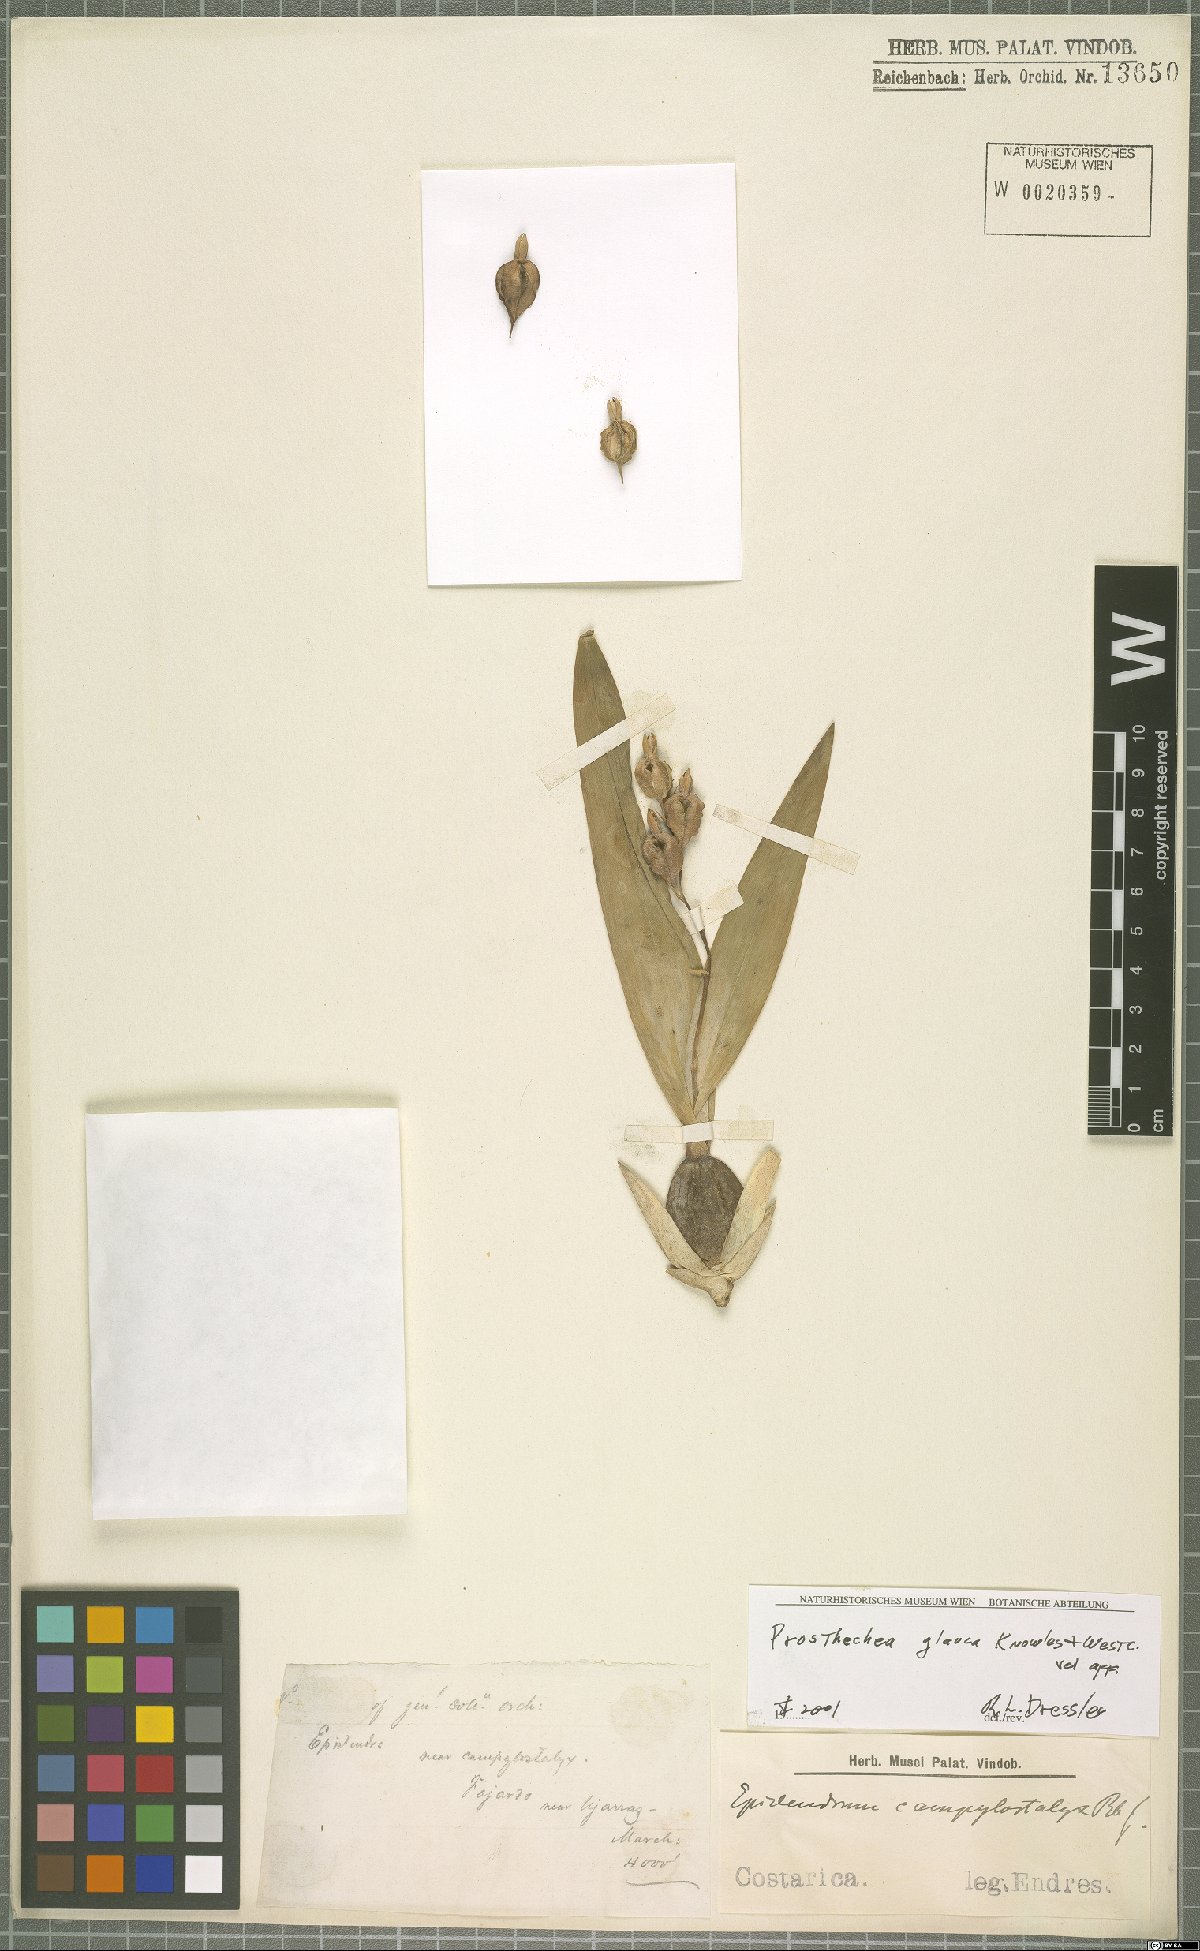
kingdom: Plantae
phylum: Tracheophyta
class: Liliopsida
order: Asparagales
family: Orchidaceae
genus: Prosthechea
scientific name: Prosthechea glauca
